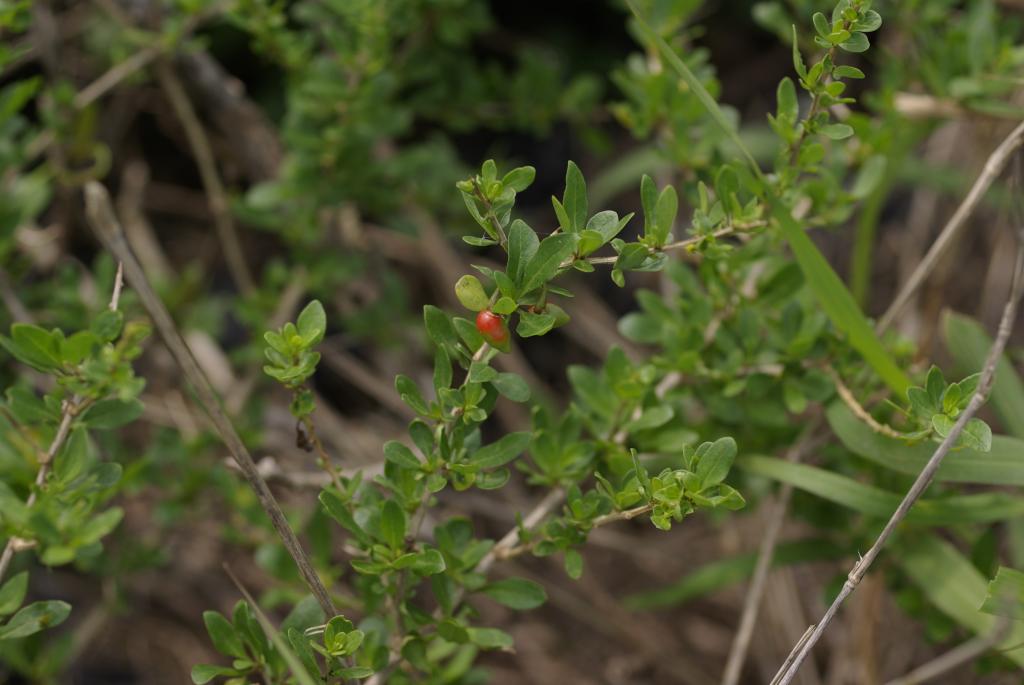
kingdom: Plantae
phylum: Tracheophyta
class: Magnoliopsida
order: Solanales
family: Solanaceae
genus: Lycium
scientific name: Lycium chinense
